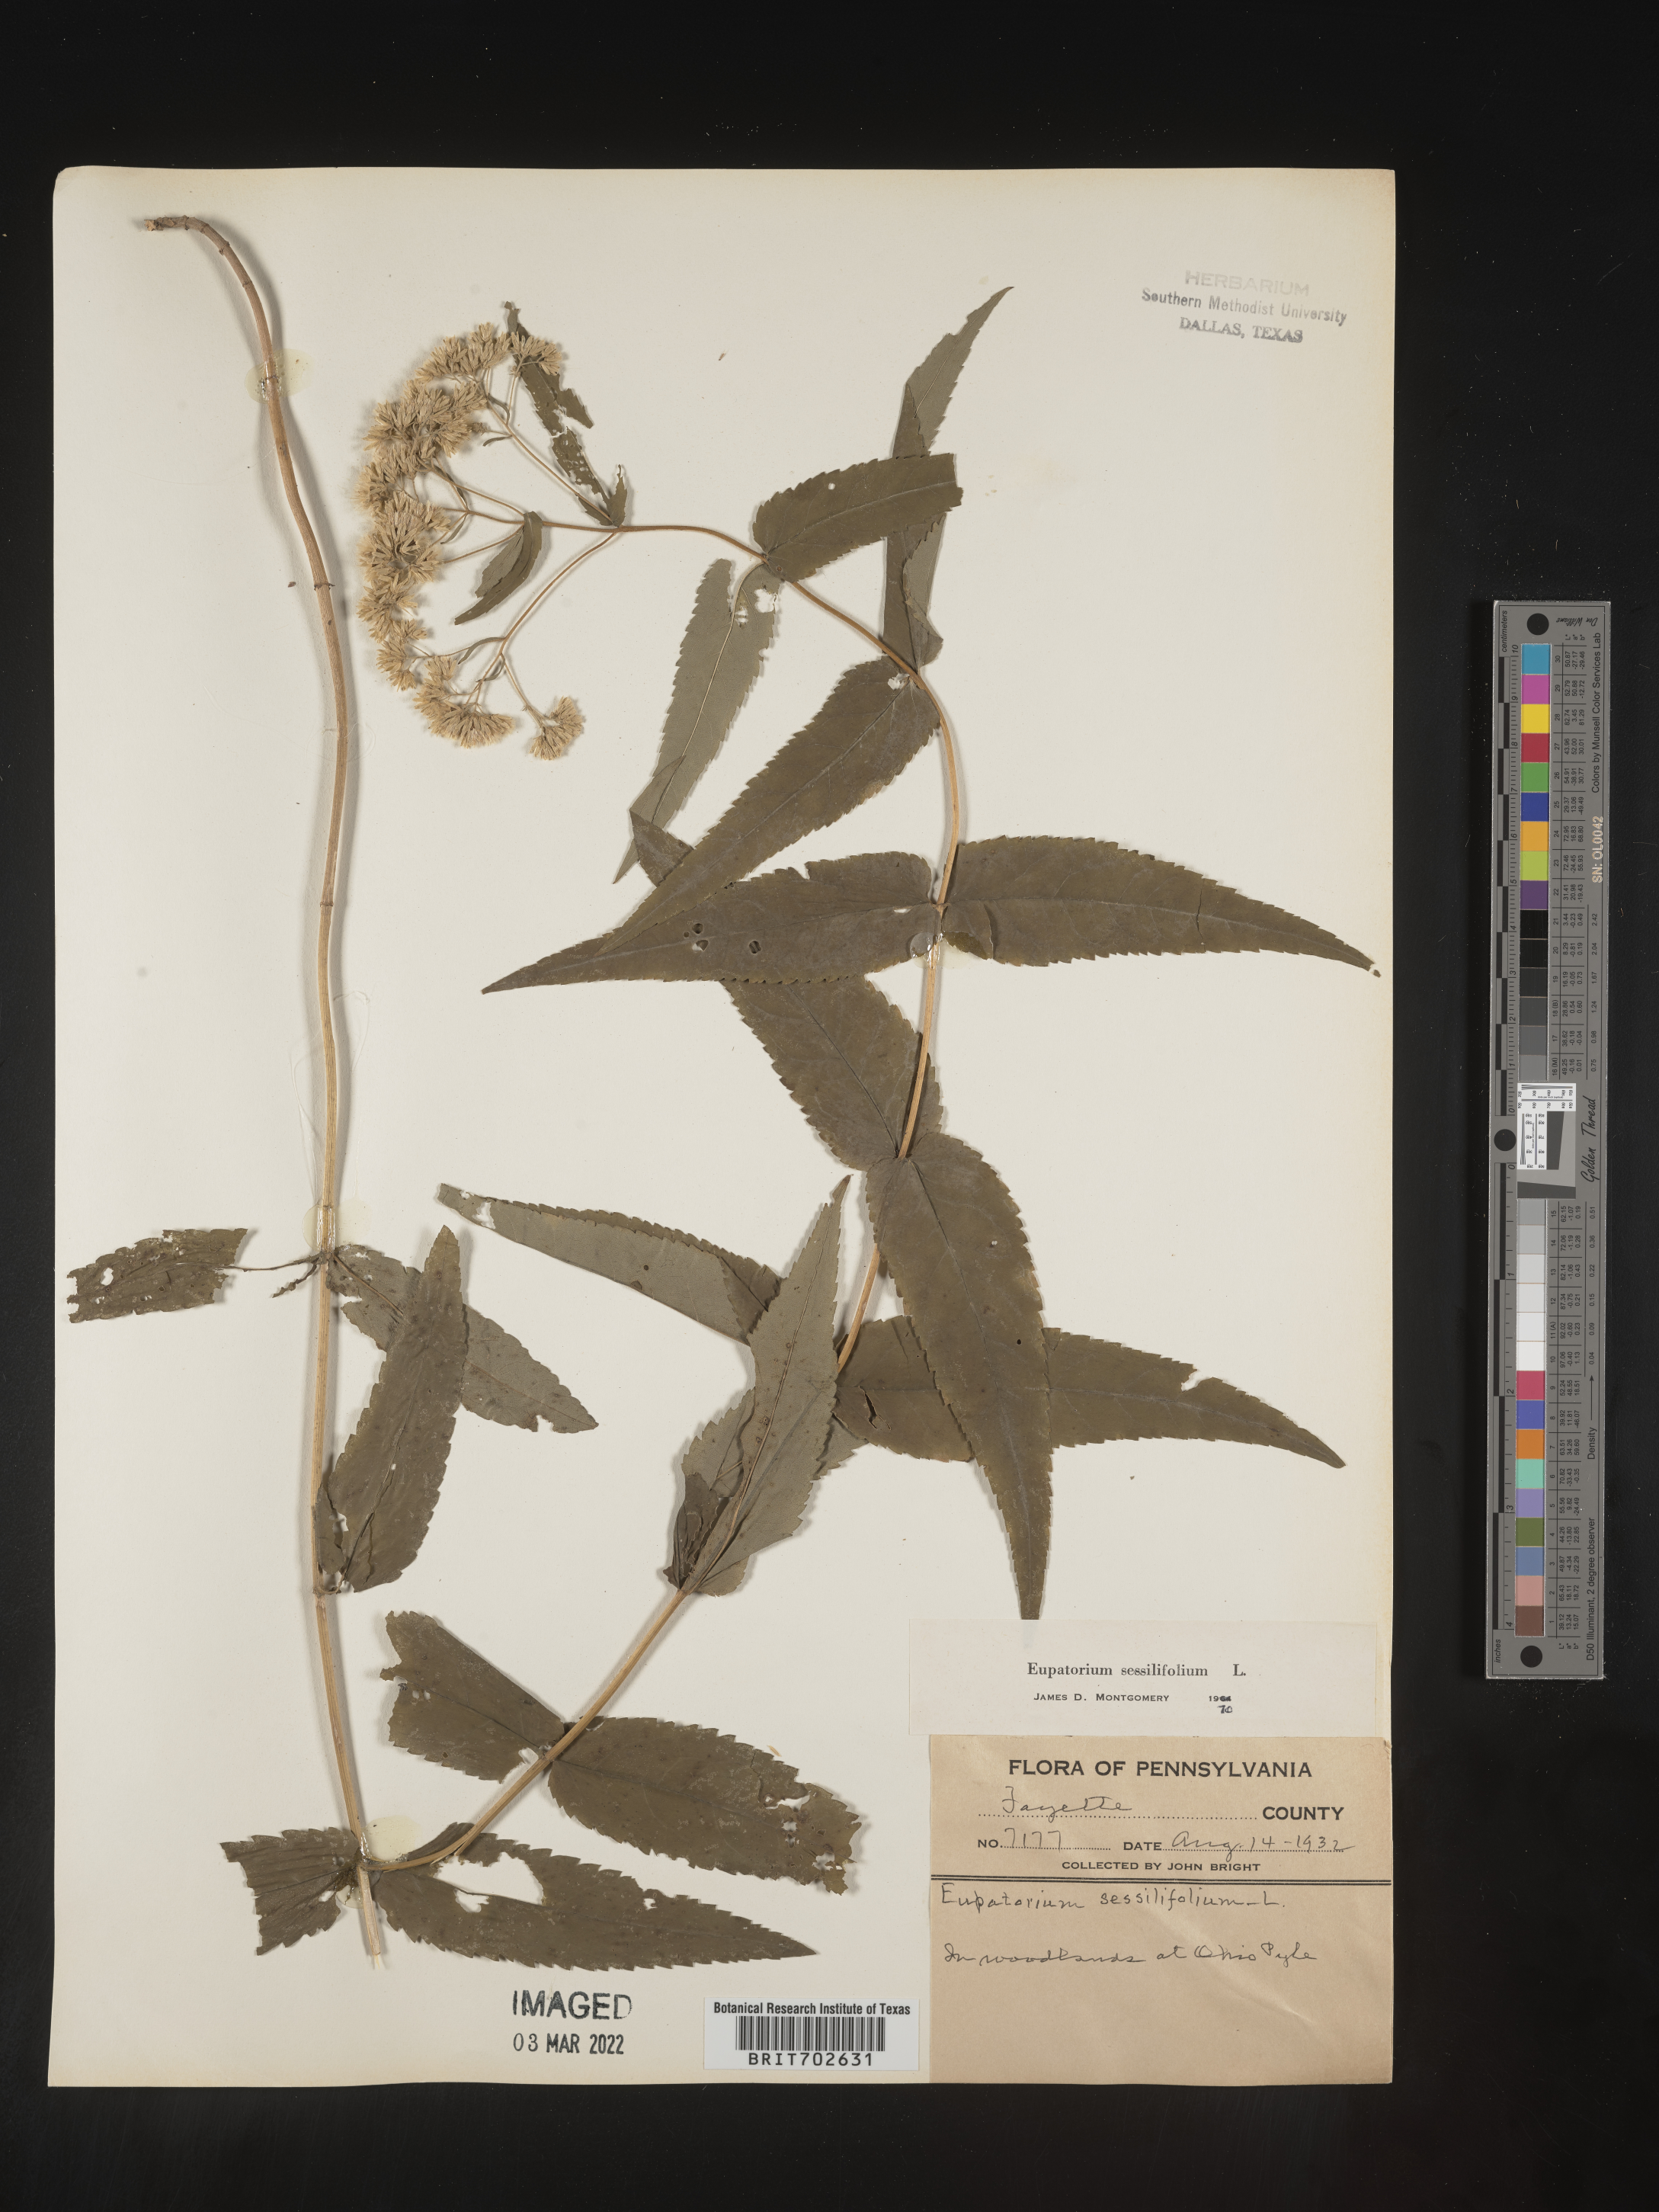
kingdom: Plantae
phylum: Tracheophyta
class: Magnoliopsida
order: Asterales
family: Asteraceae
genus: Eupatorium
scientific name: Eupatorium sessilifolium
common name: Upland boneset
